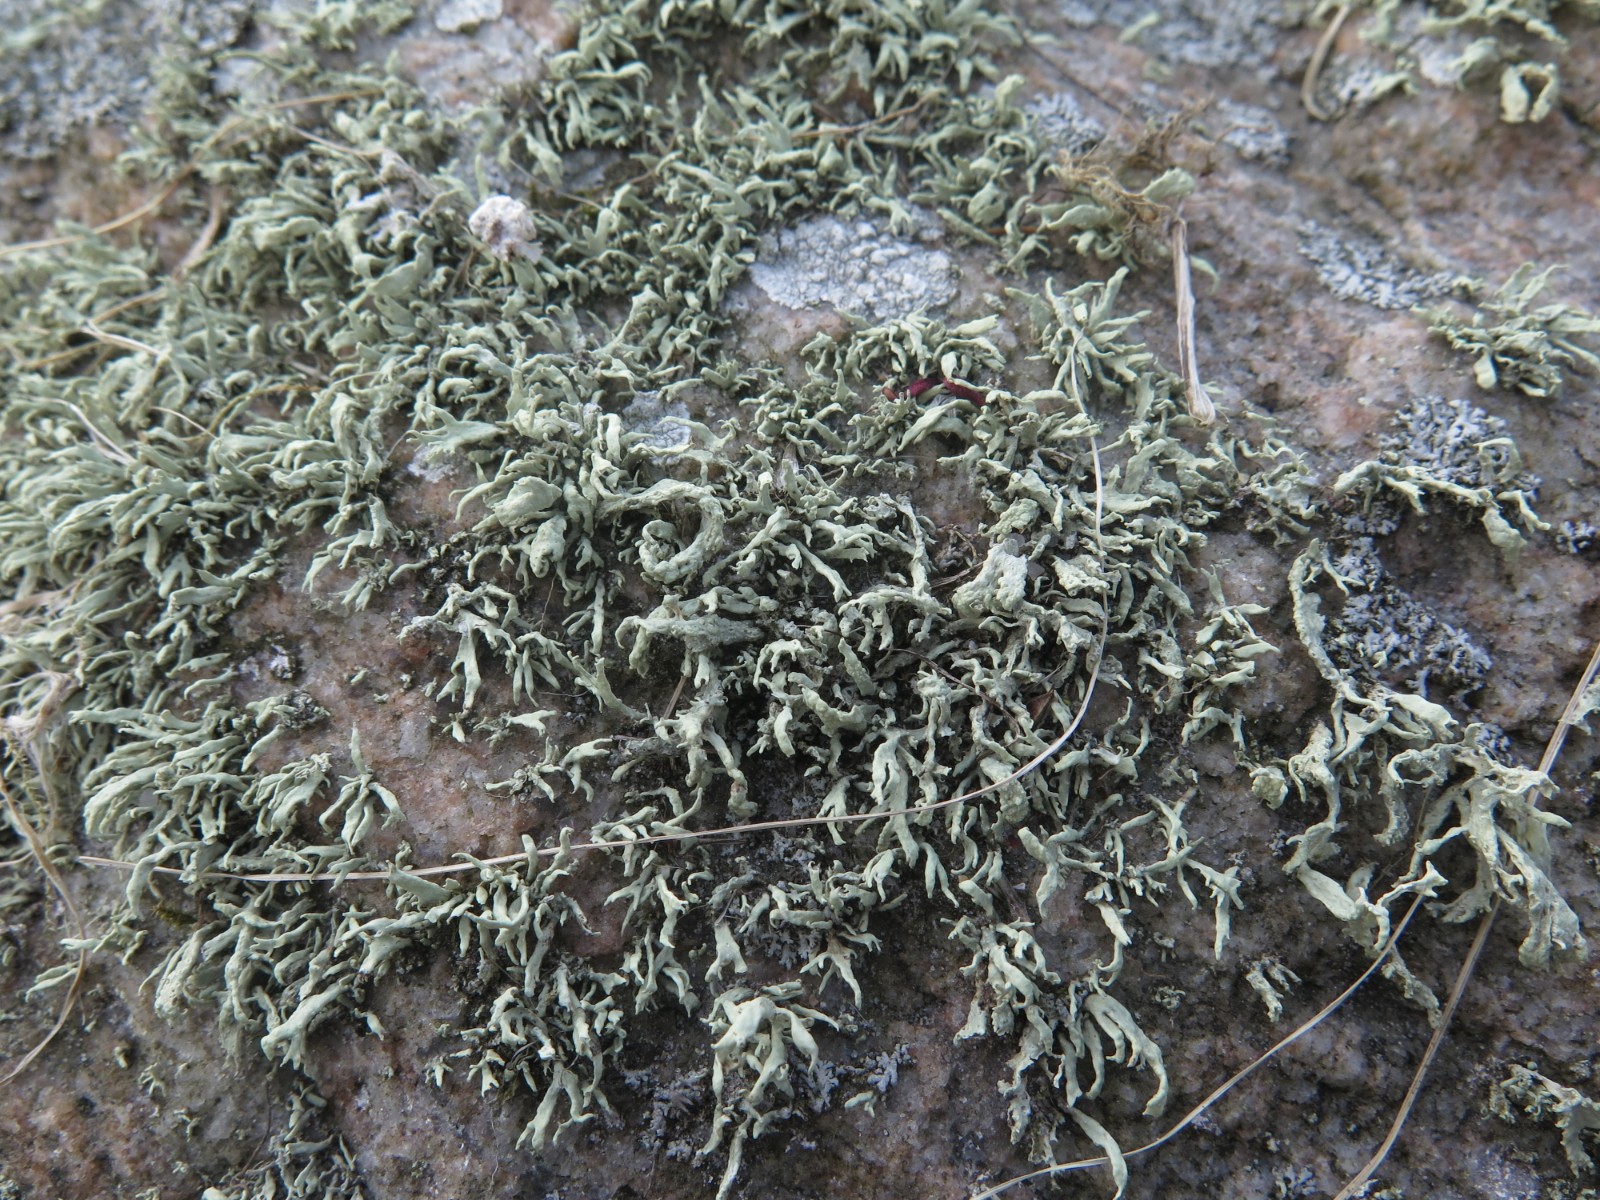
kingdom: Fungi
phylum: Ascomycota
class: Lecanoromycetes
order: Lecanorales
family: Ramalinaceae
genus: Ramalina
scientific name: Ramalina siliquosa
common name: klippe-grenlav
